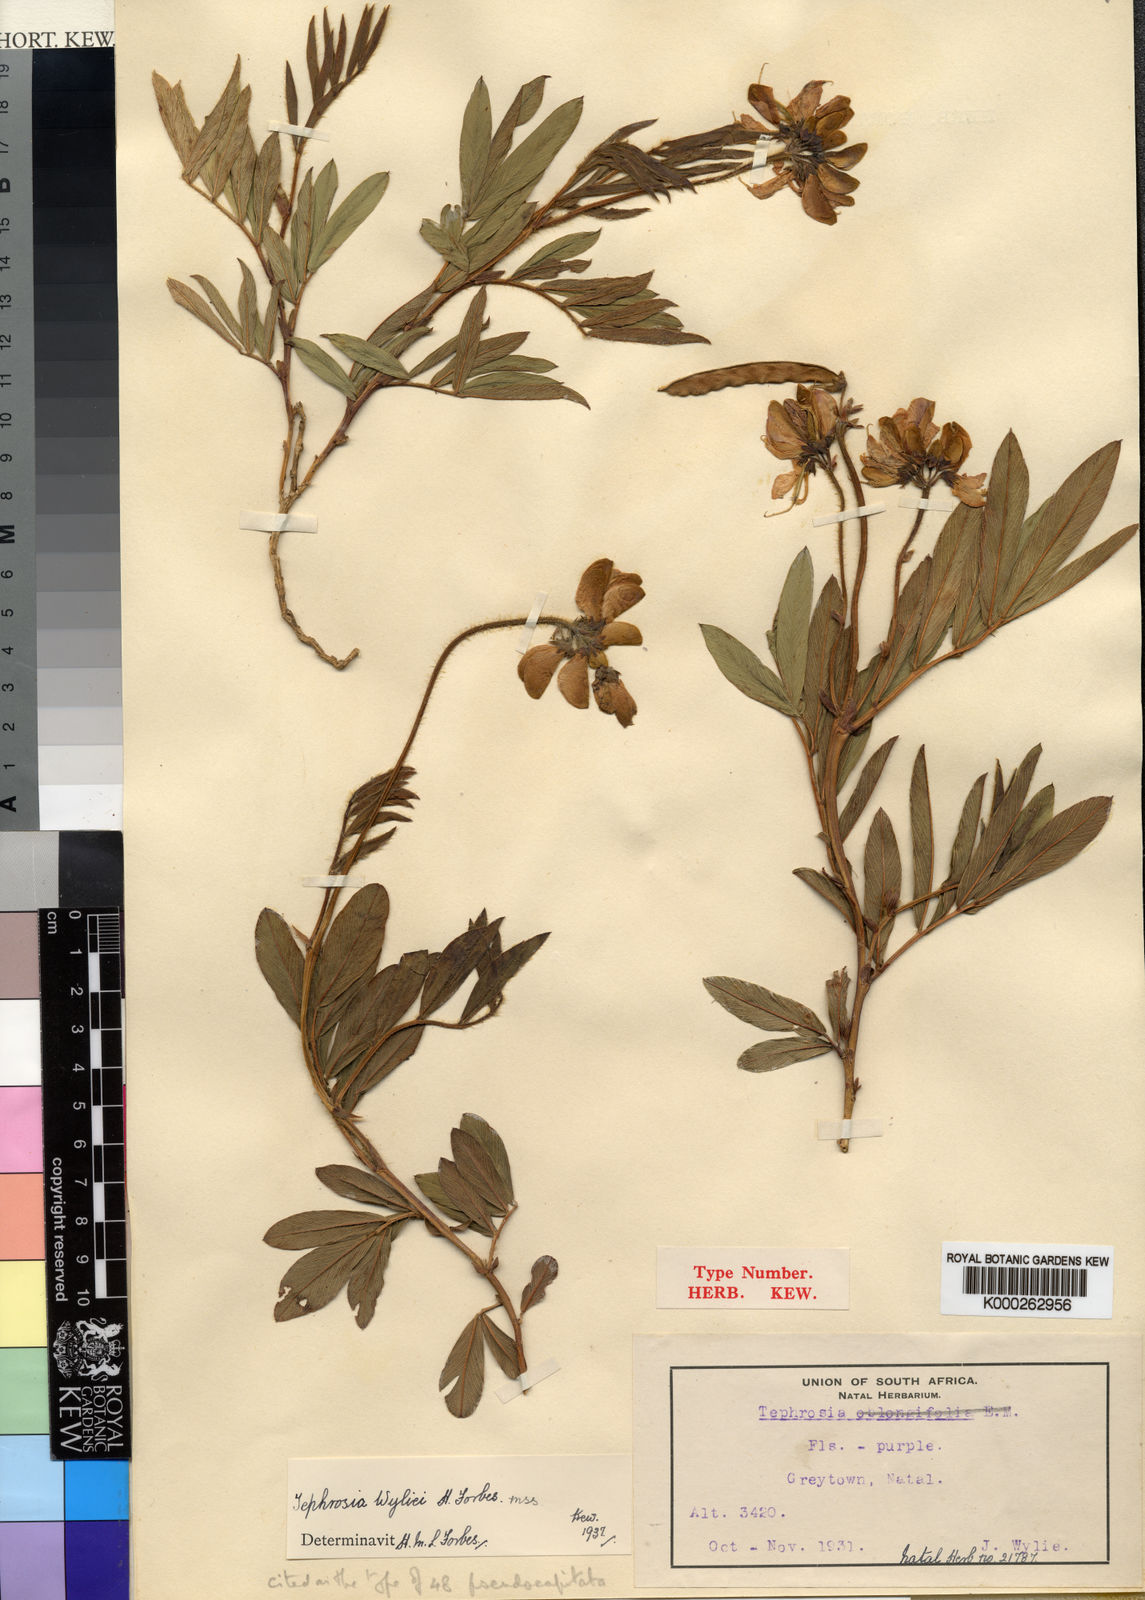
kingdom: Plantae
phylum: Tracheophyta
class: Magnoliopsida
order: Fabales
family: Fabaceae
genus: Tephrosia
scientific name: Tephrosia natalensis
